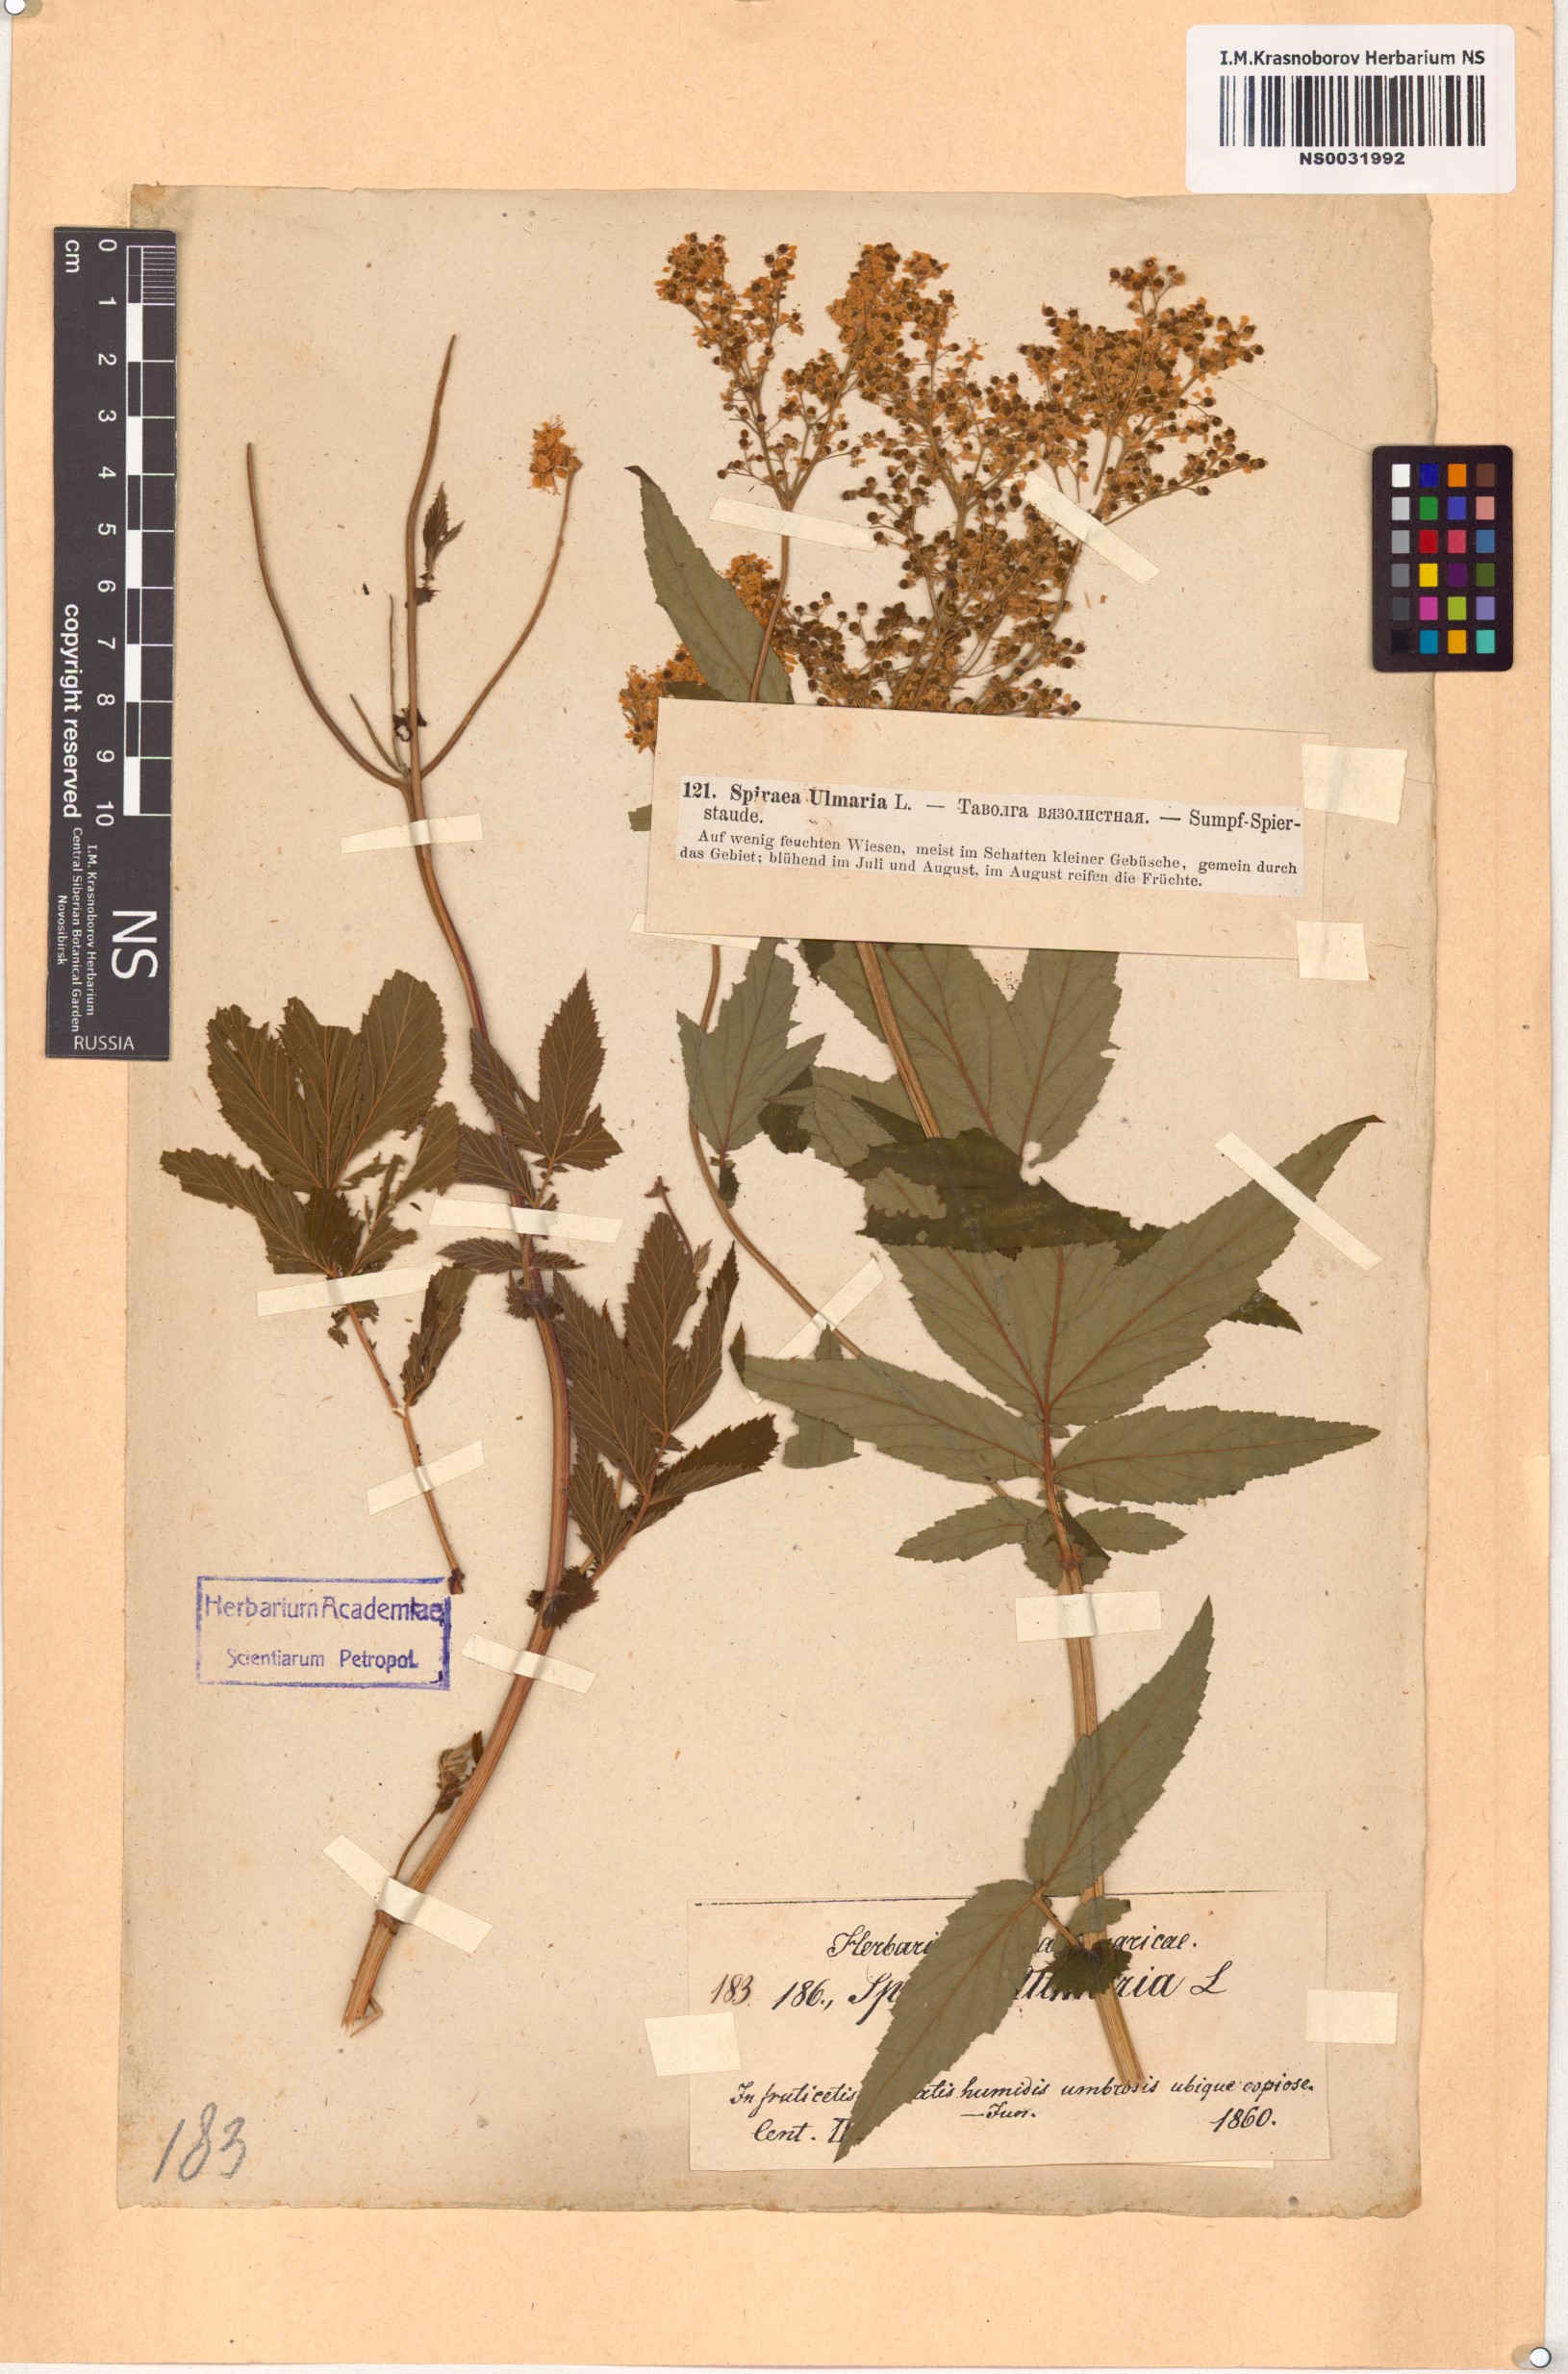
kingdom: Plantae
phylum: Tracheophyta
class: Magnoliopsida
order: Rosales
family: Rosaceae
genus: Filipendula
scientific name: Filipendula ulmaria
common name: Meadowsweet
